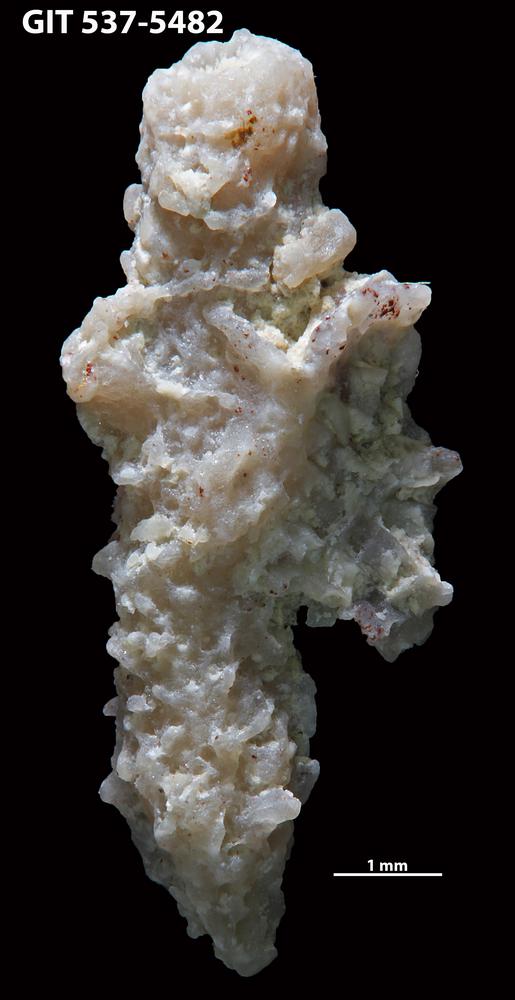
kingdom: Animalia
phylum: Bryozoa
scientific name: Bryozoa
